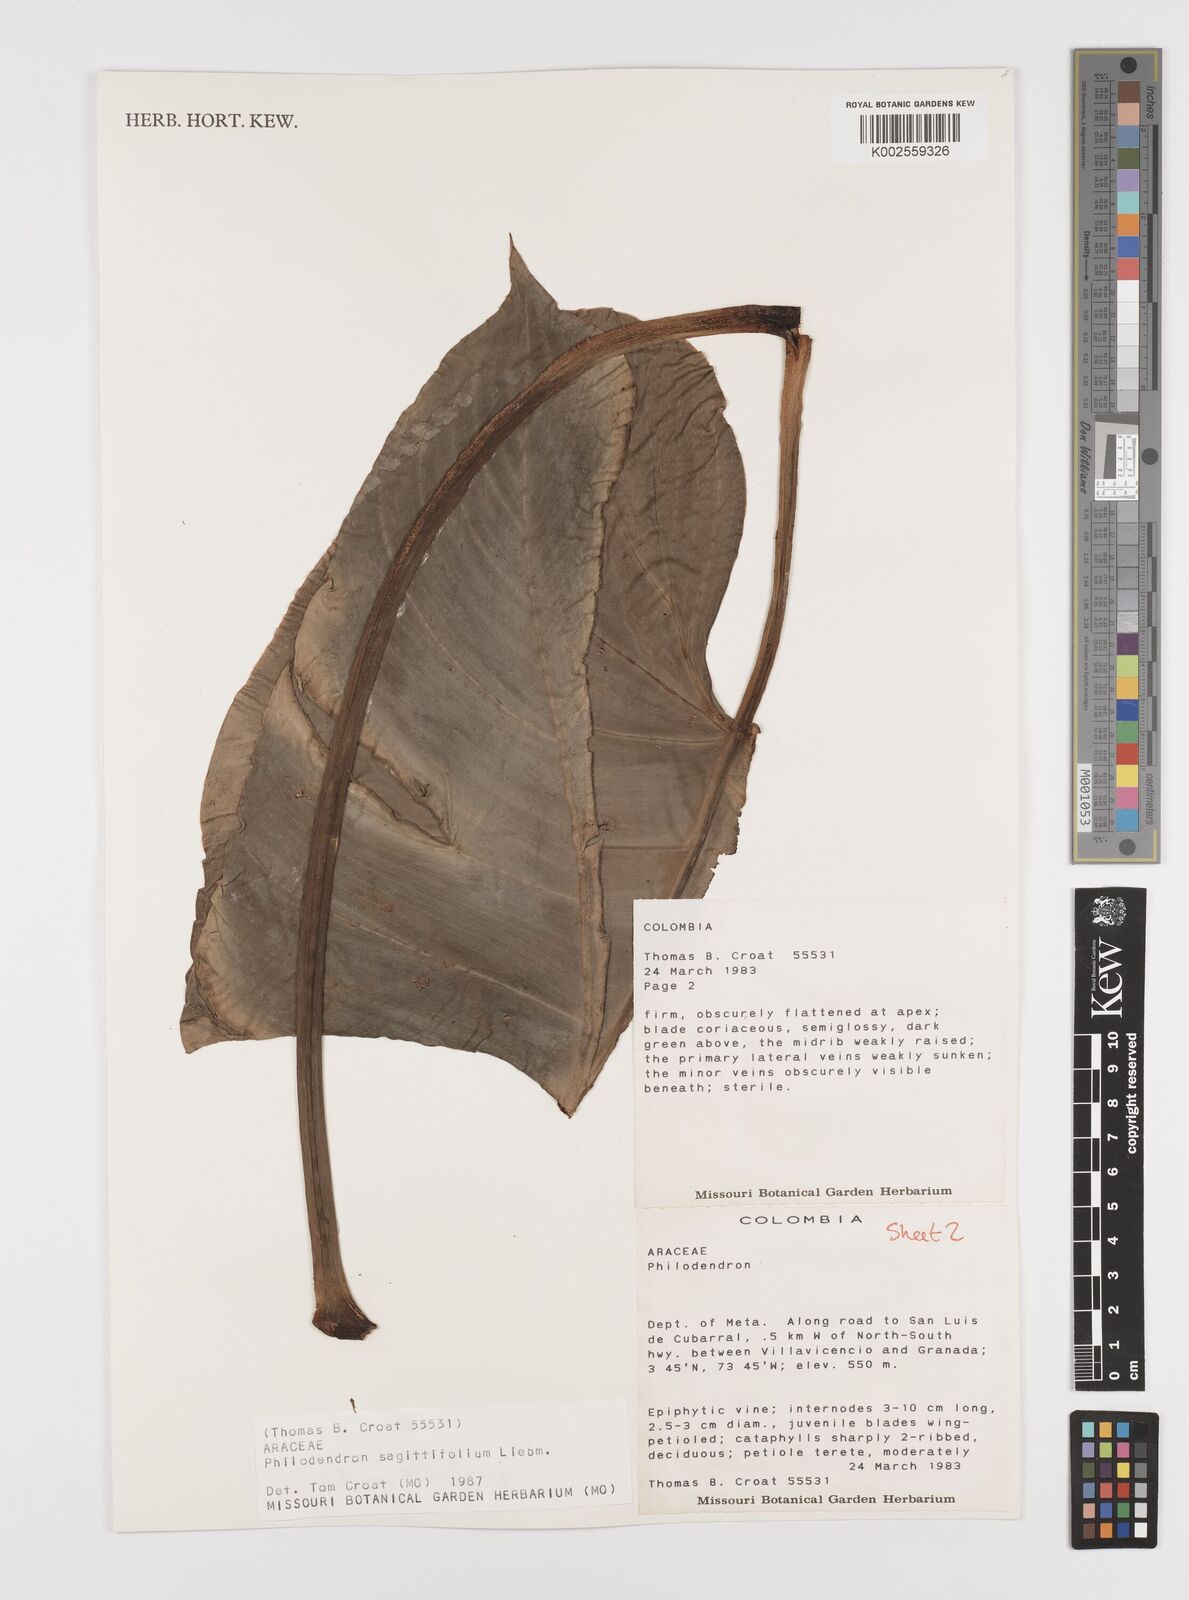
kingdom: Plantae
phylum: Tracheophyta
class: Liliopsida
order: Alismatales
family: Araceae
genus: Philodendron
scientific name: Philodendron sagittifolium
